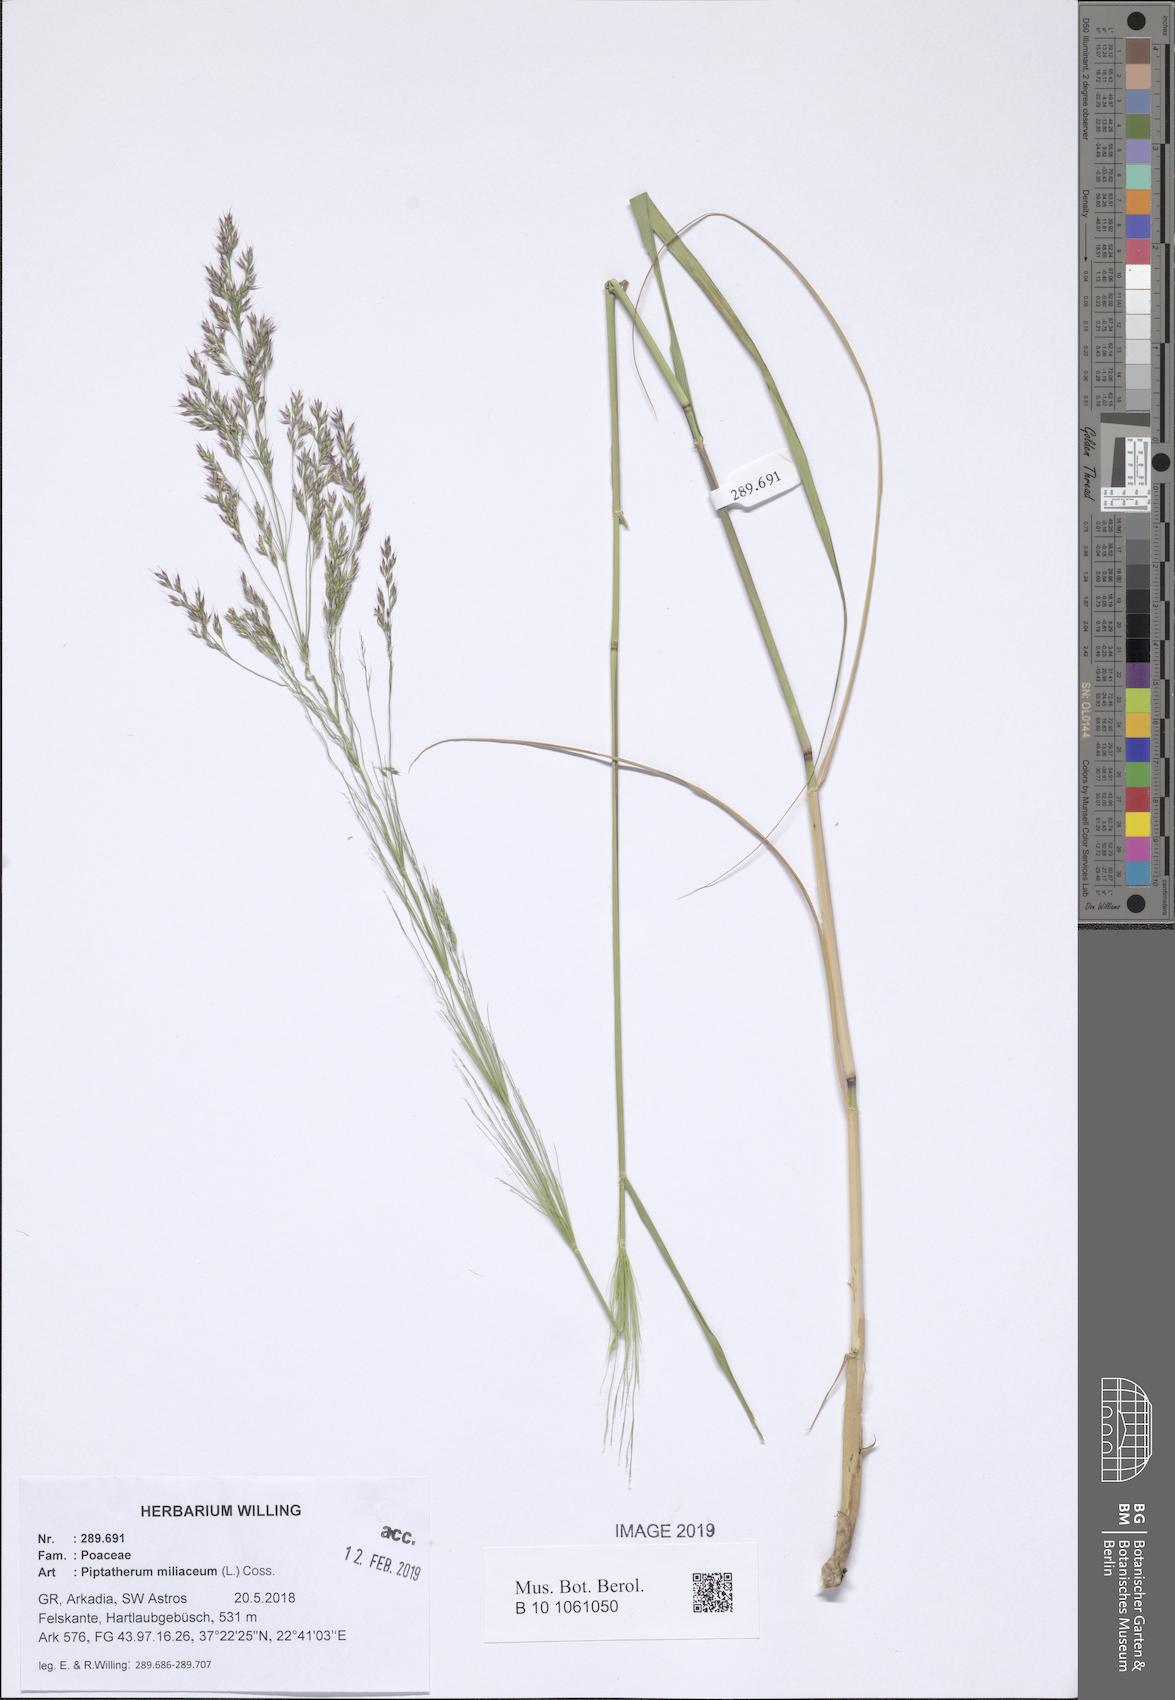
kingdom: Plantae
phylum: Tracheophyta
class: Liliopsida
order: Poales
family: Poaceae
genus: Oloptum
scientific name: Oloptum miliaceum
